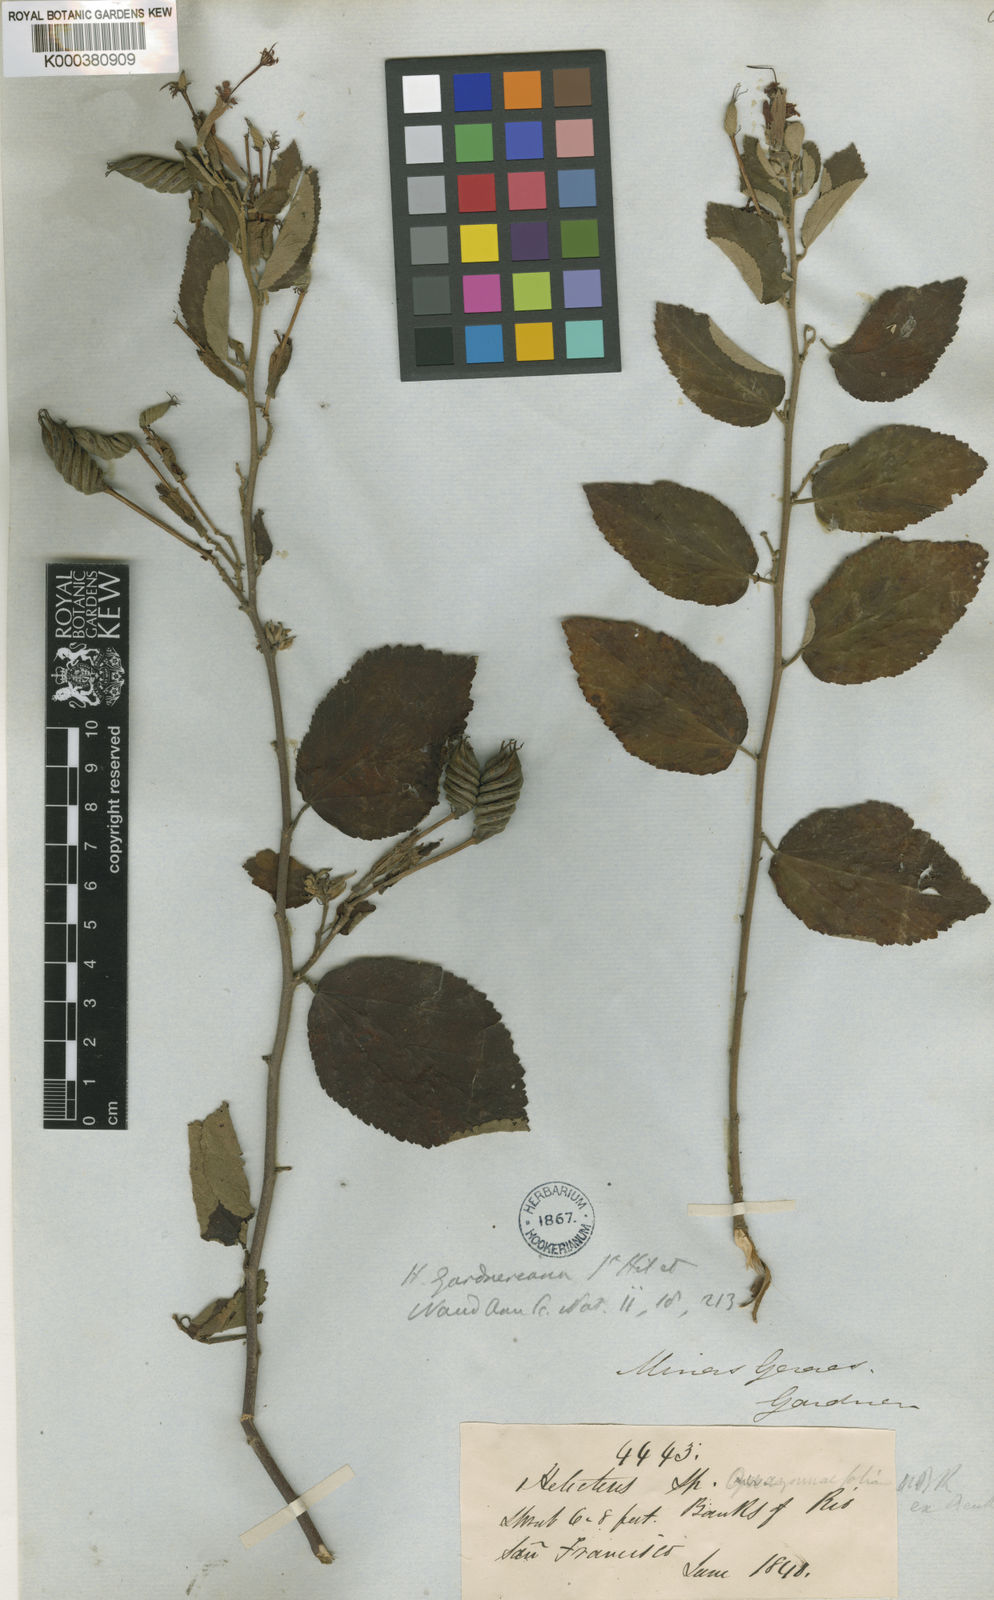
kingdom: Plantae
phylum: Tracheophyta
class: Magnoliopsida
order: Malvales
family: Malvaceae
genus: Helicteres
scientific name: Helicteres gardneriana
